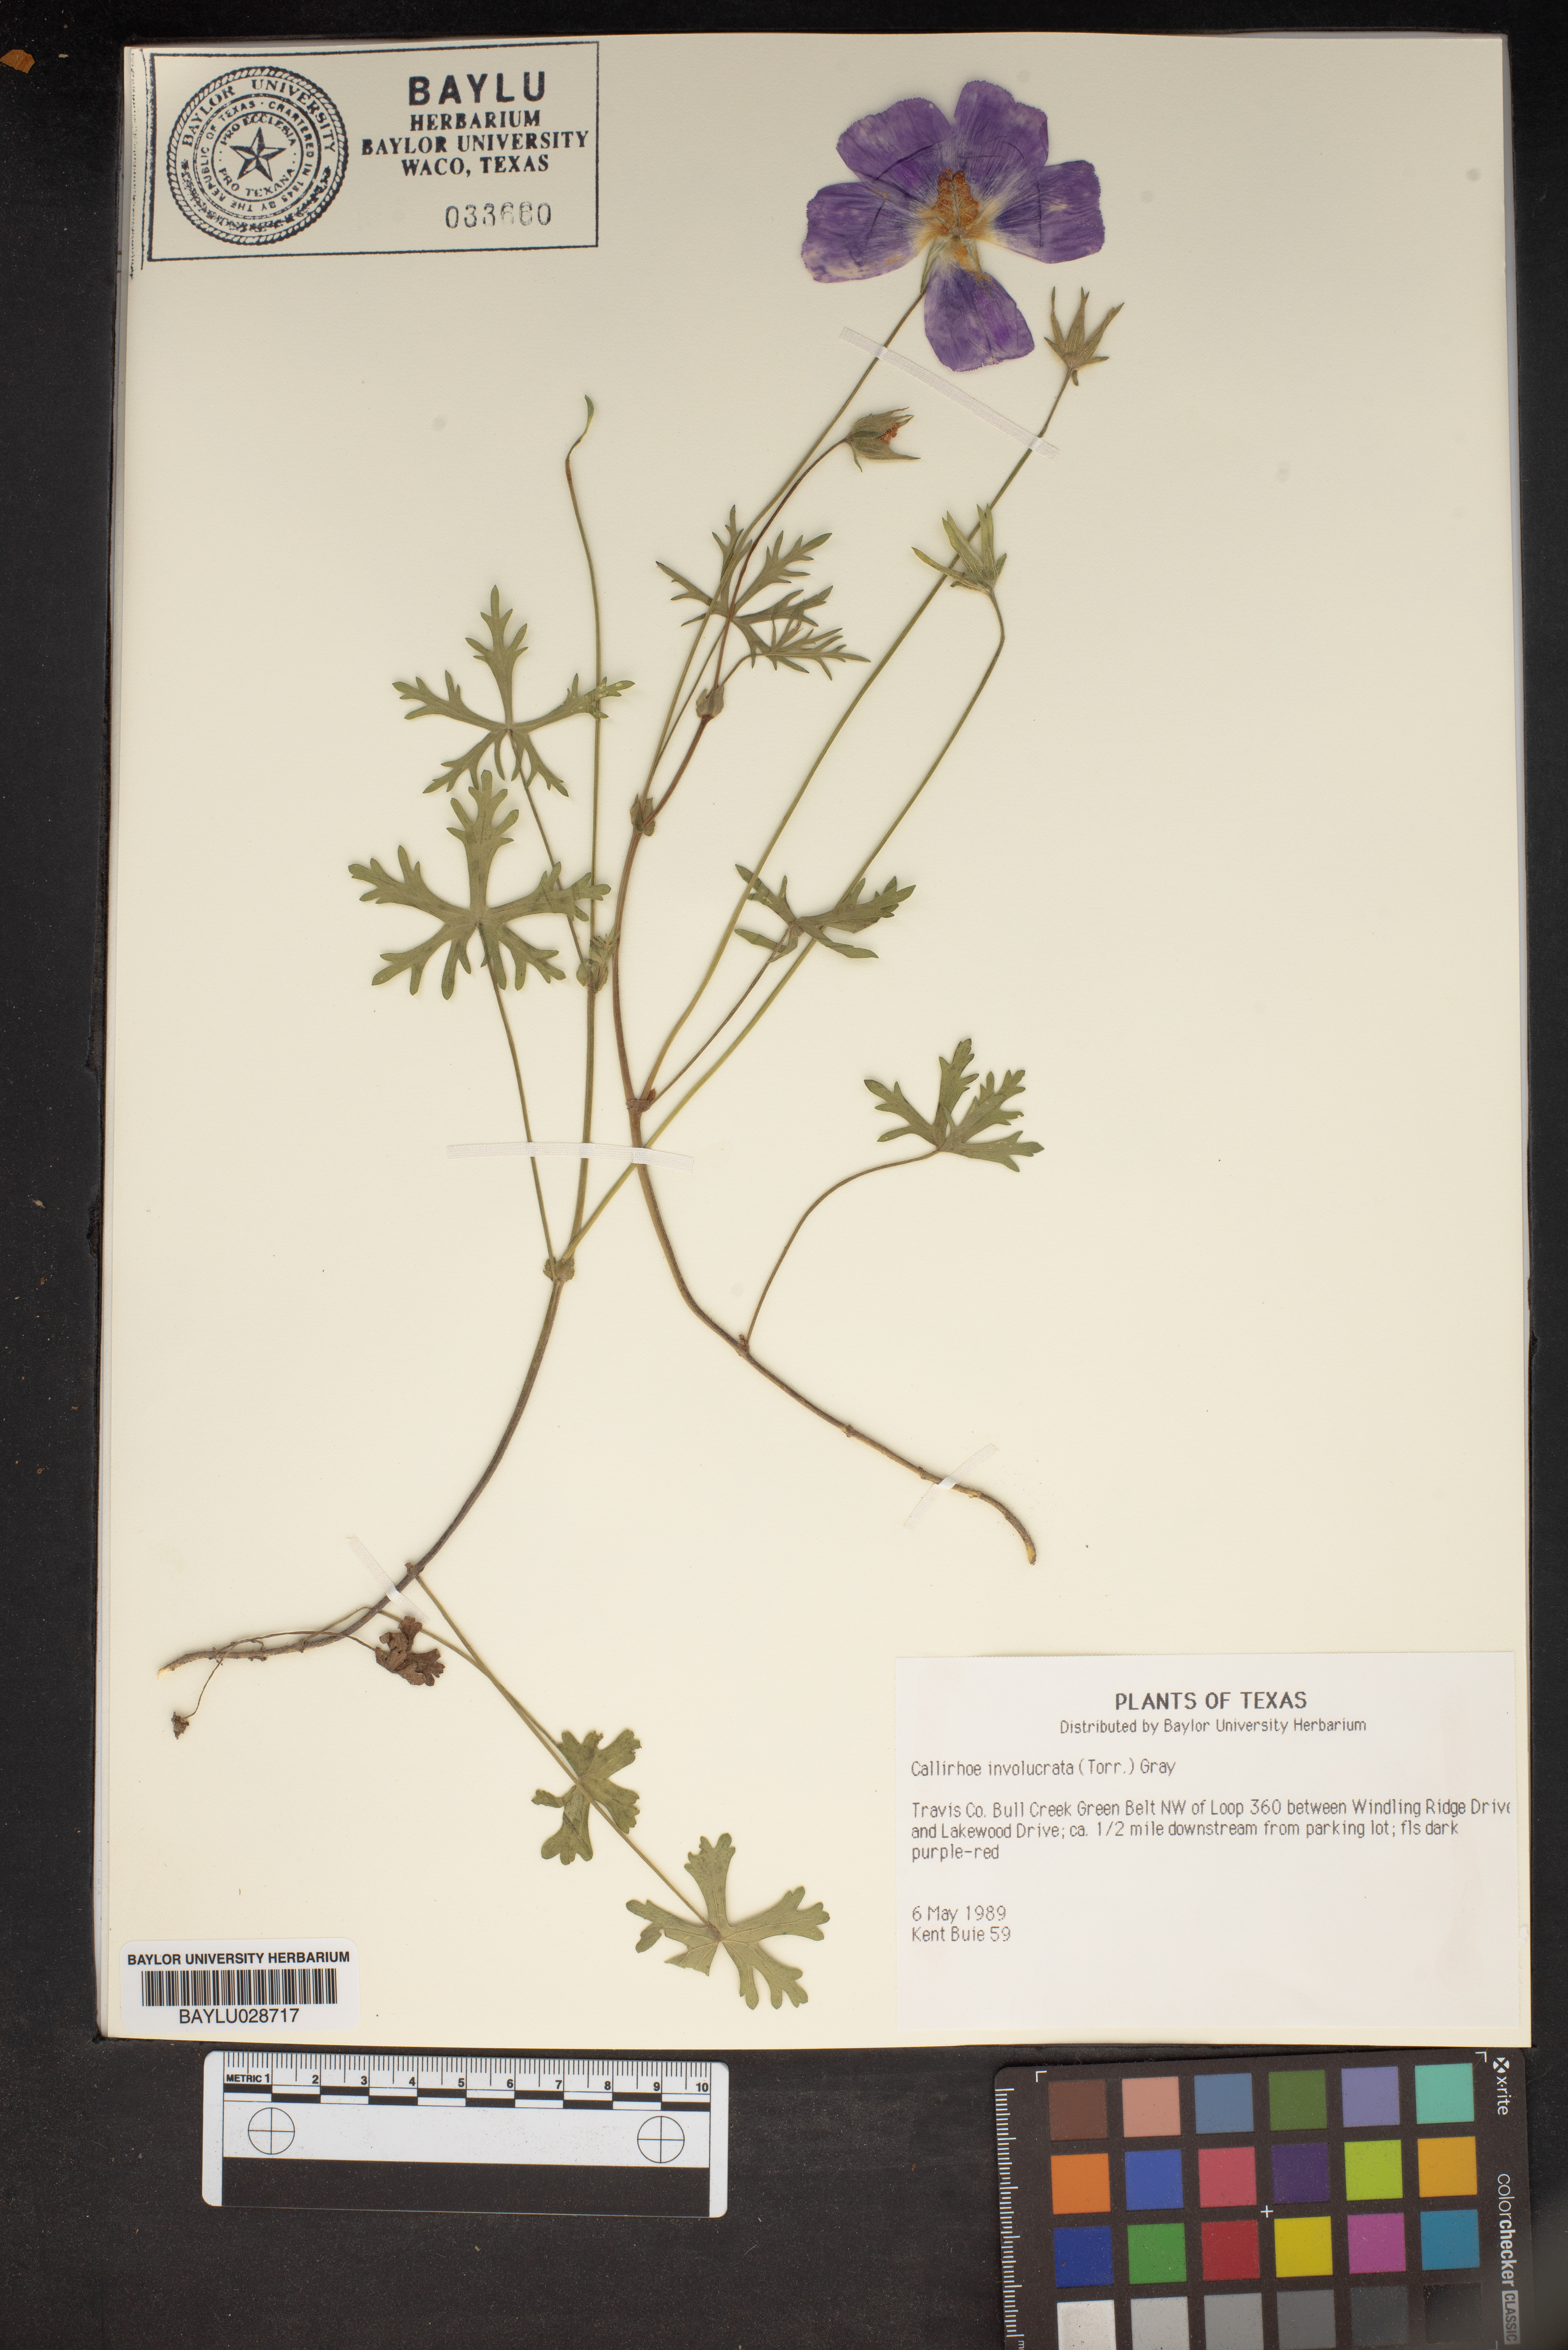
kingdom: Plantae
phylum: Tracheophyta
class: Magnoliopsida
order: Malvales
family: Malvaceae
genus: Callirhoe
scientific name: Callirhoe involucrata
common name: Purple poppy-mallow
